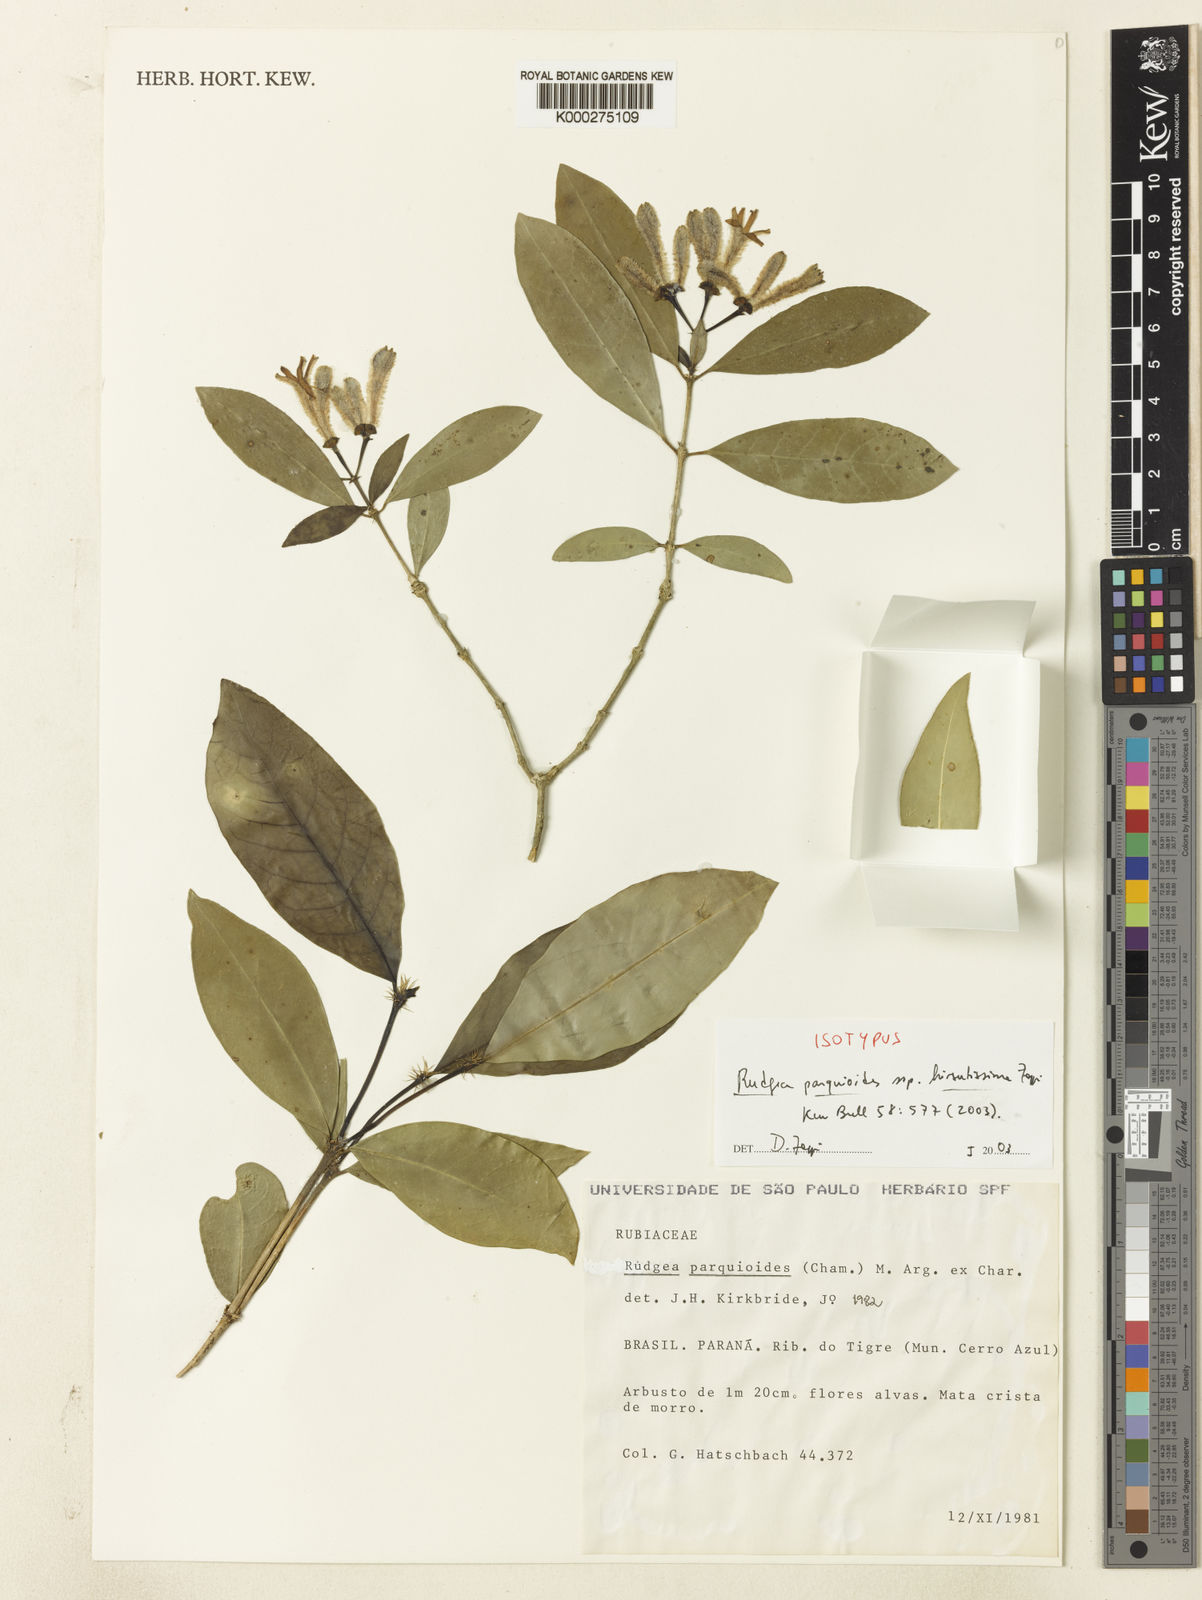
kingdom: Plantae
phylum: Tracheophyta
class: Magnoliopsida
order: Gentianales
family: Rubiaceae
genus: Rudgea
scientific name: Rudgea
